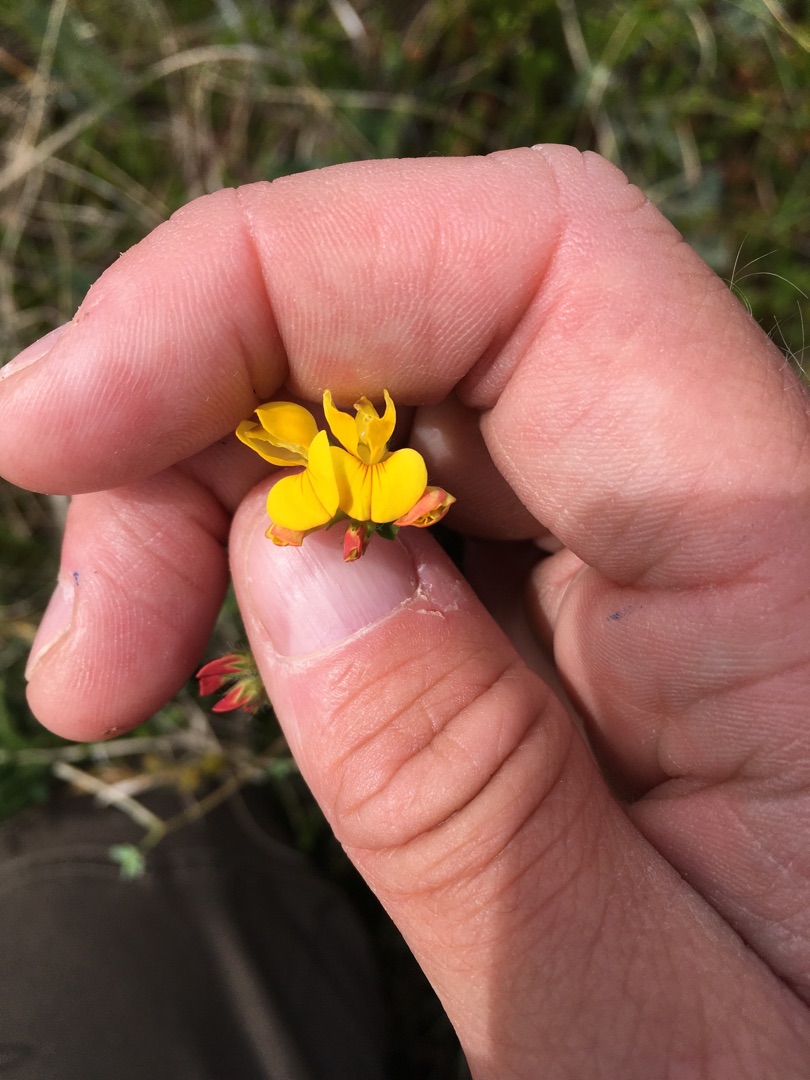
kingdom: Plantae
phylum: Tracheophyta
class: Magnoliopsida
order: Fabales
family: Fabaceae
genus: Lotus
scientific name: Lotus corniculatus
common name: Almindelig kællingetand
